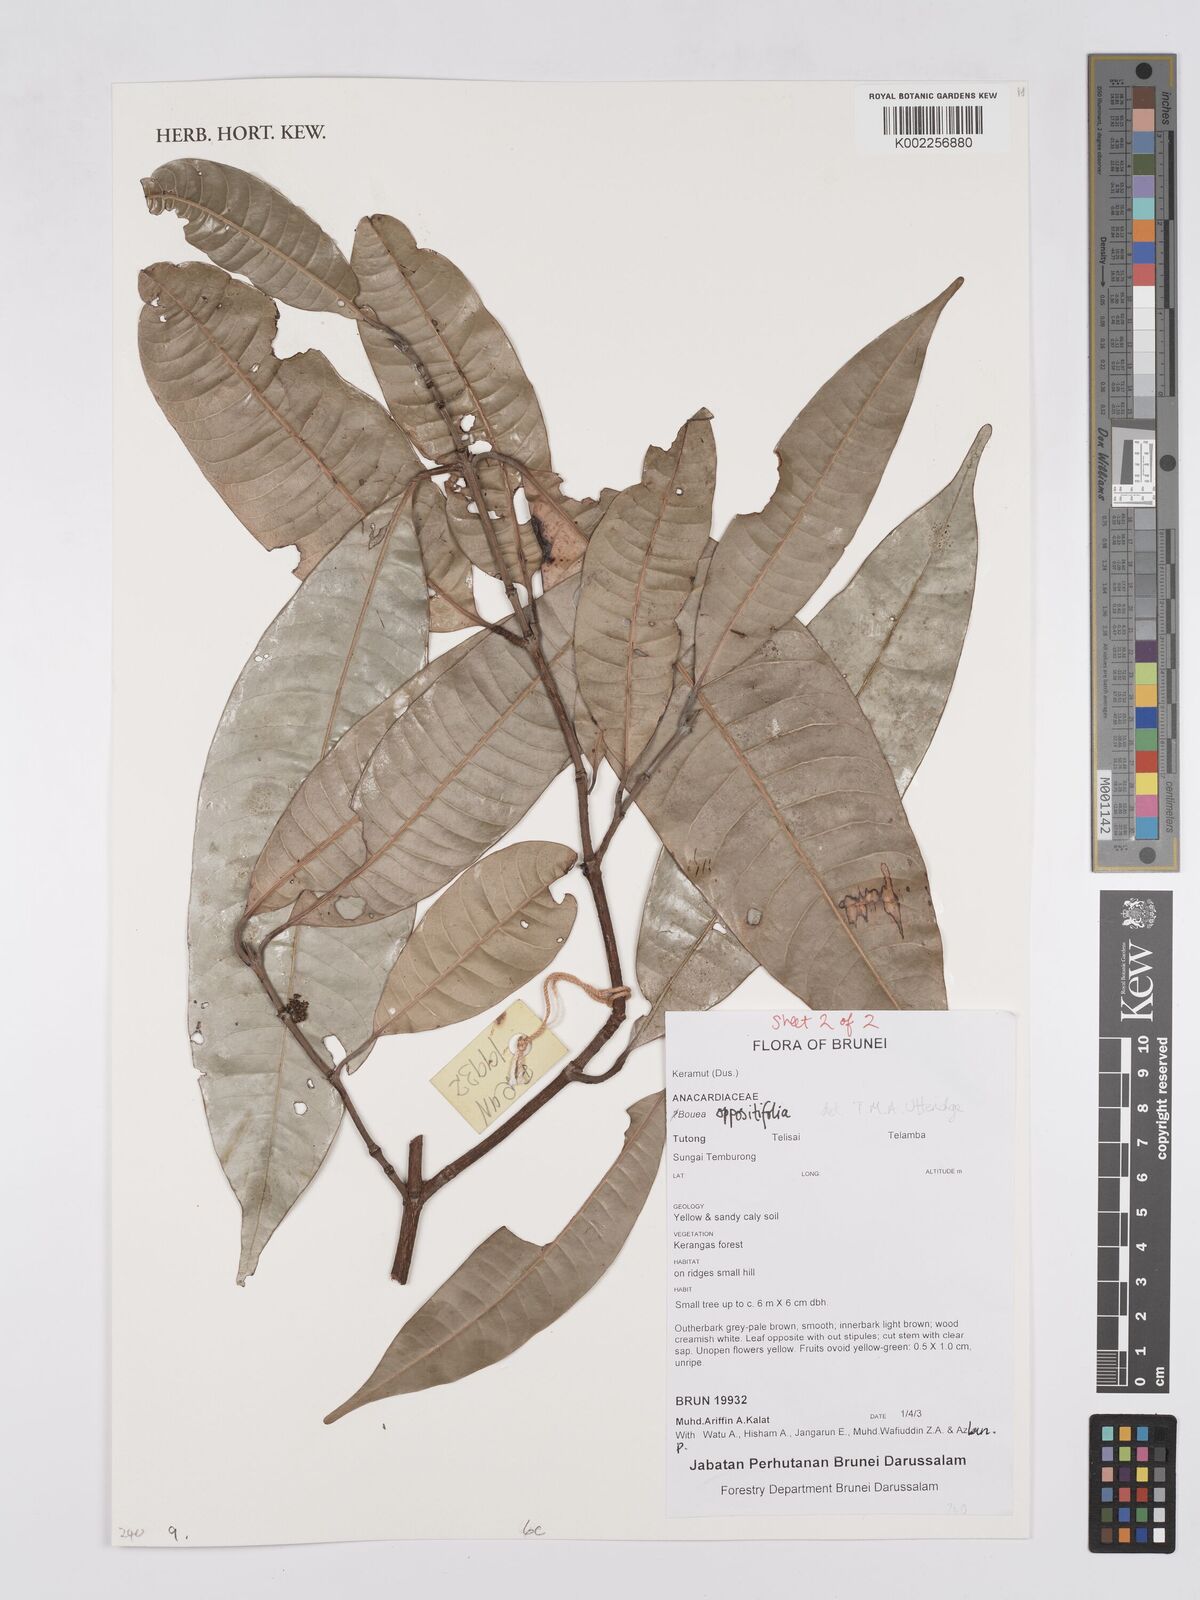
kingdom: Plantae
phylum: Tracheophyta
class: Magnoliopsida
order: Sapindales
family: Anacardiaceae
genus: Bouea
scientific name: Bouea oppositifolia
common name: Narrow-leaved kundang
